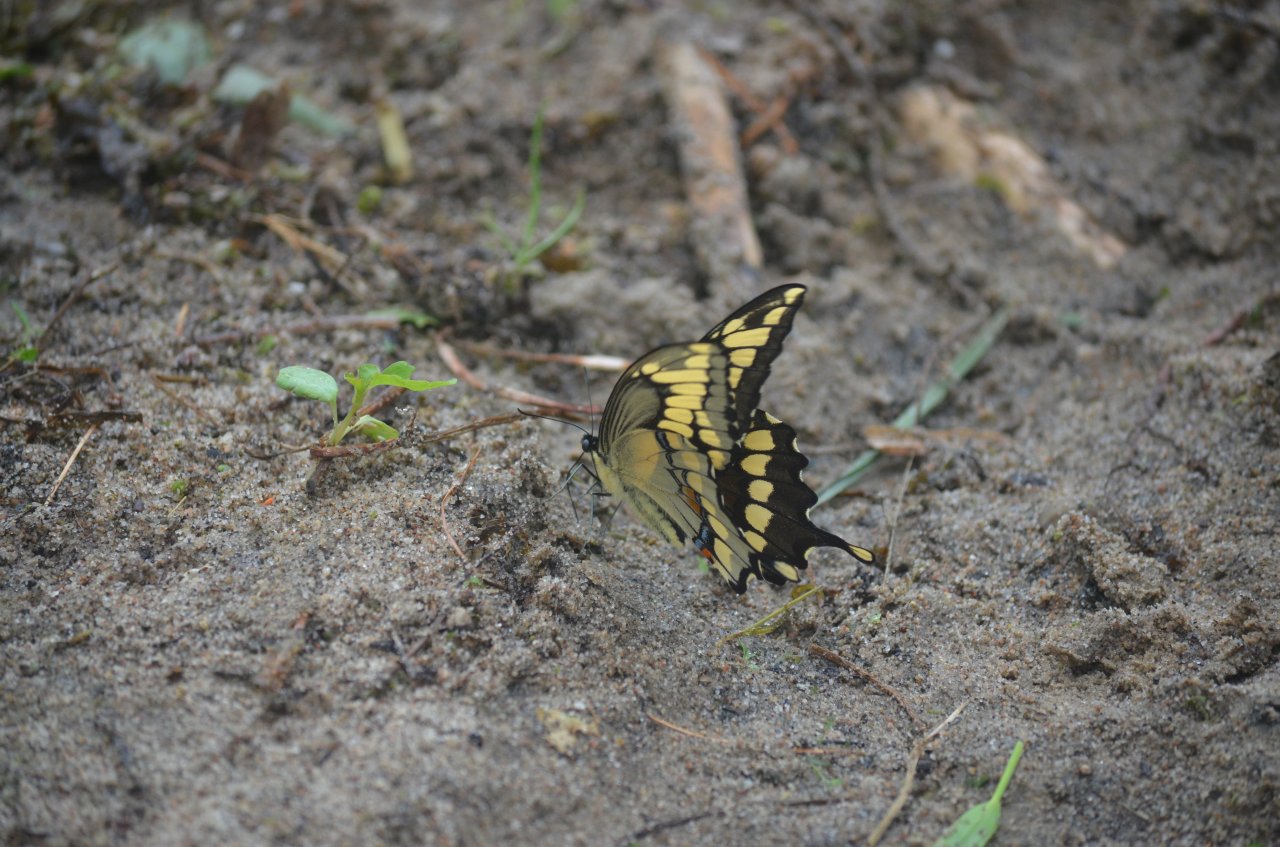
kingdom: Animalia
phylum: Arthropoda
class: Insecta
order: Lepidoptera
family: Papilionidae
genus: Papilio
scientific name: Papilio cresphontes
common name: Eastern Giant Swallowtail
